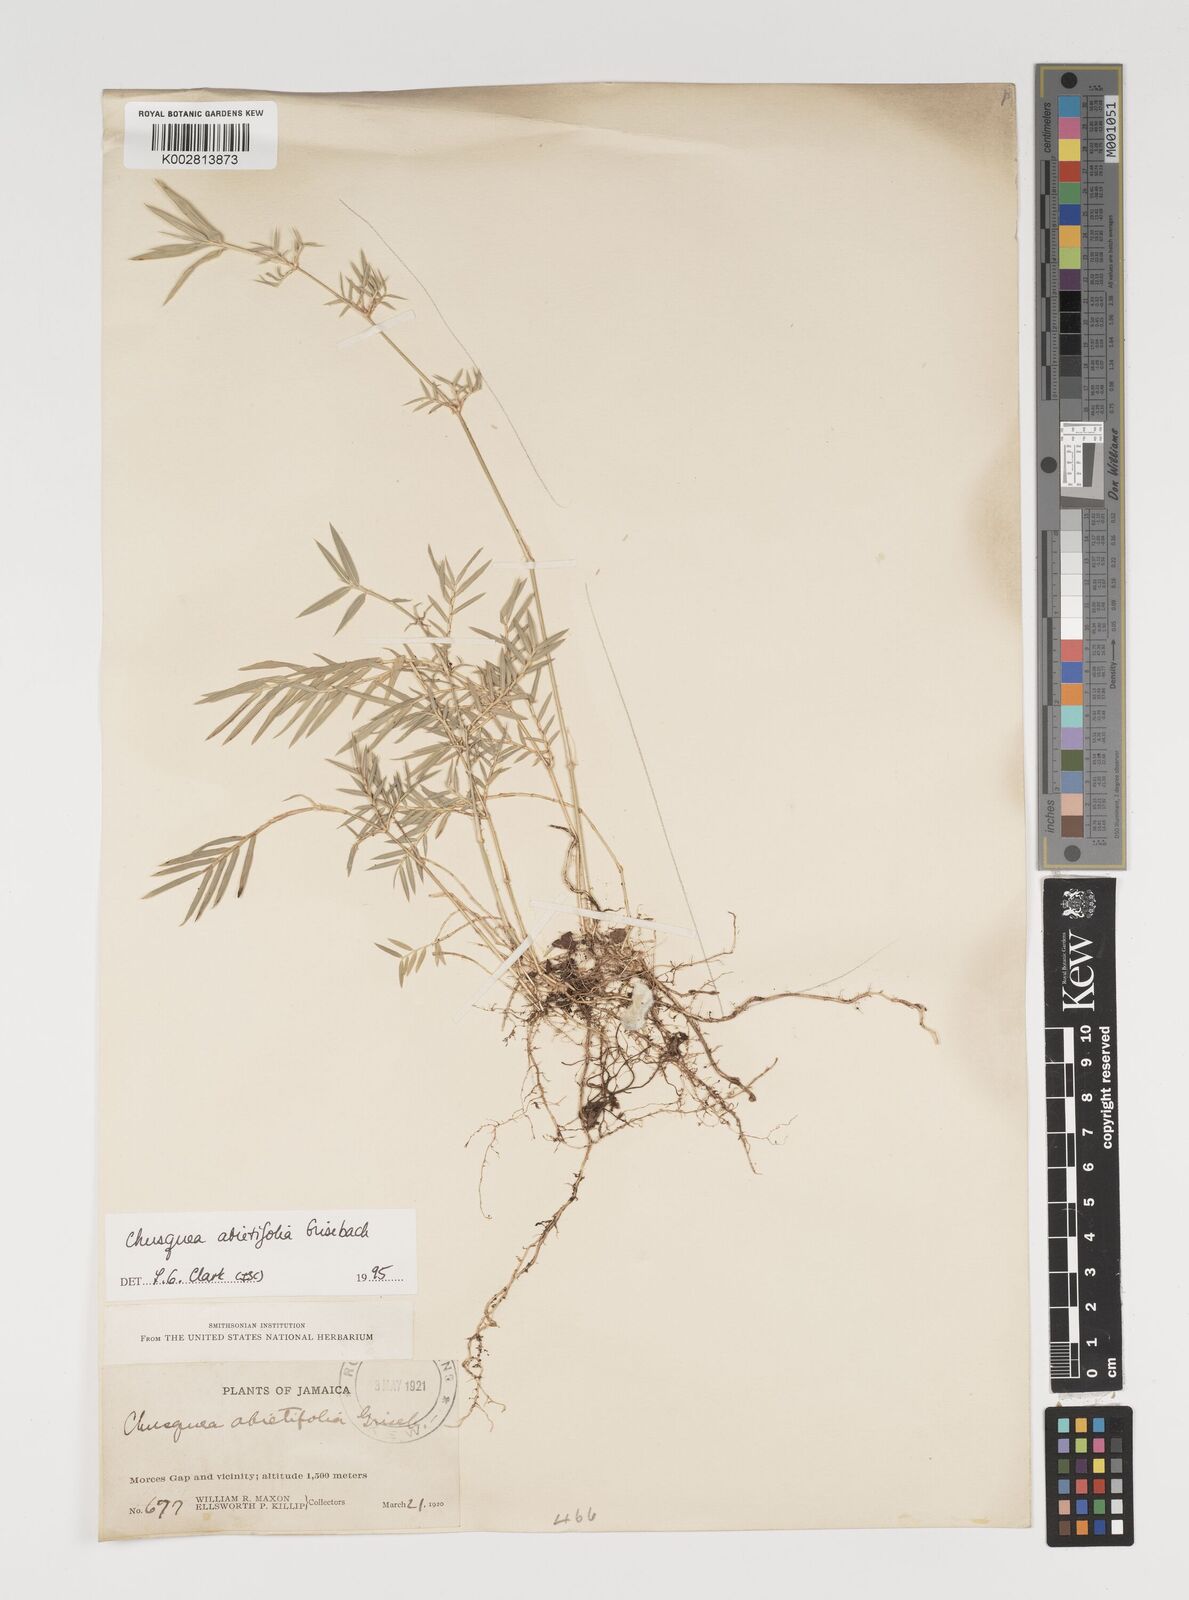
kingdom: Plantae
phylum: Tracheophyta
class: Liliopsida
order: Poales
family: Poaceae
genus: Chusquea
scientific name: Chusquea abietifolia
